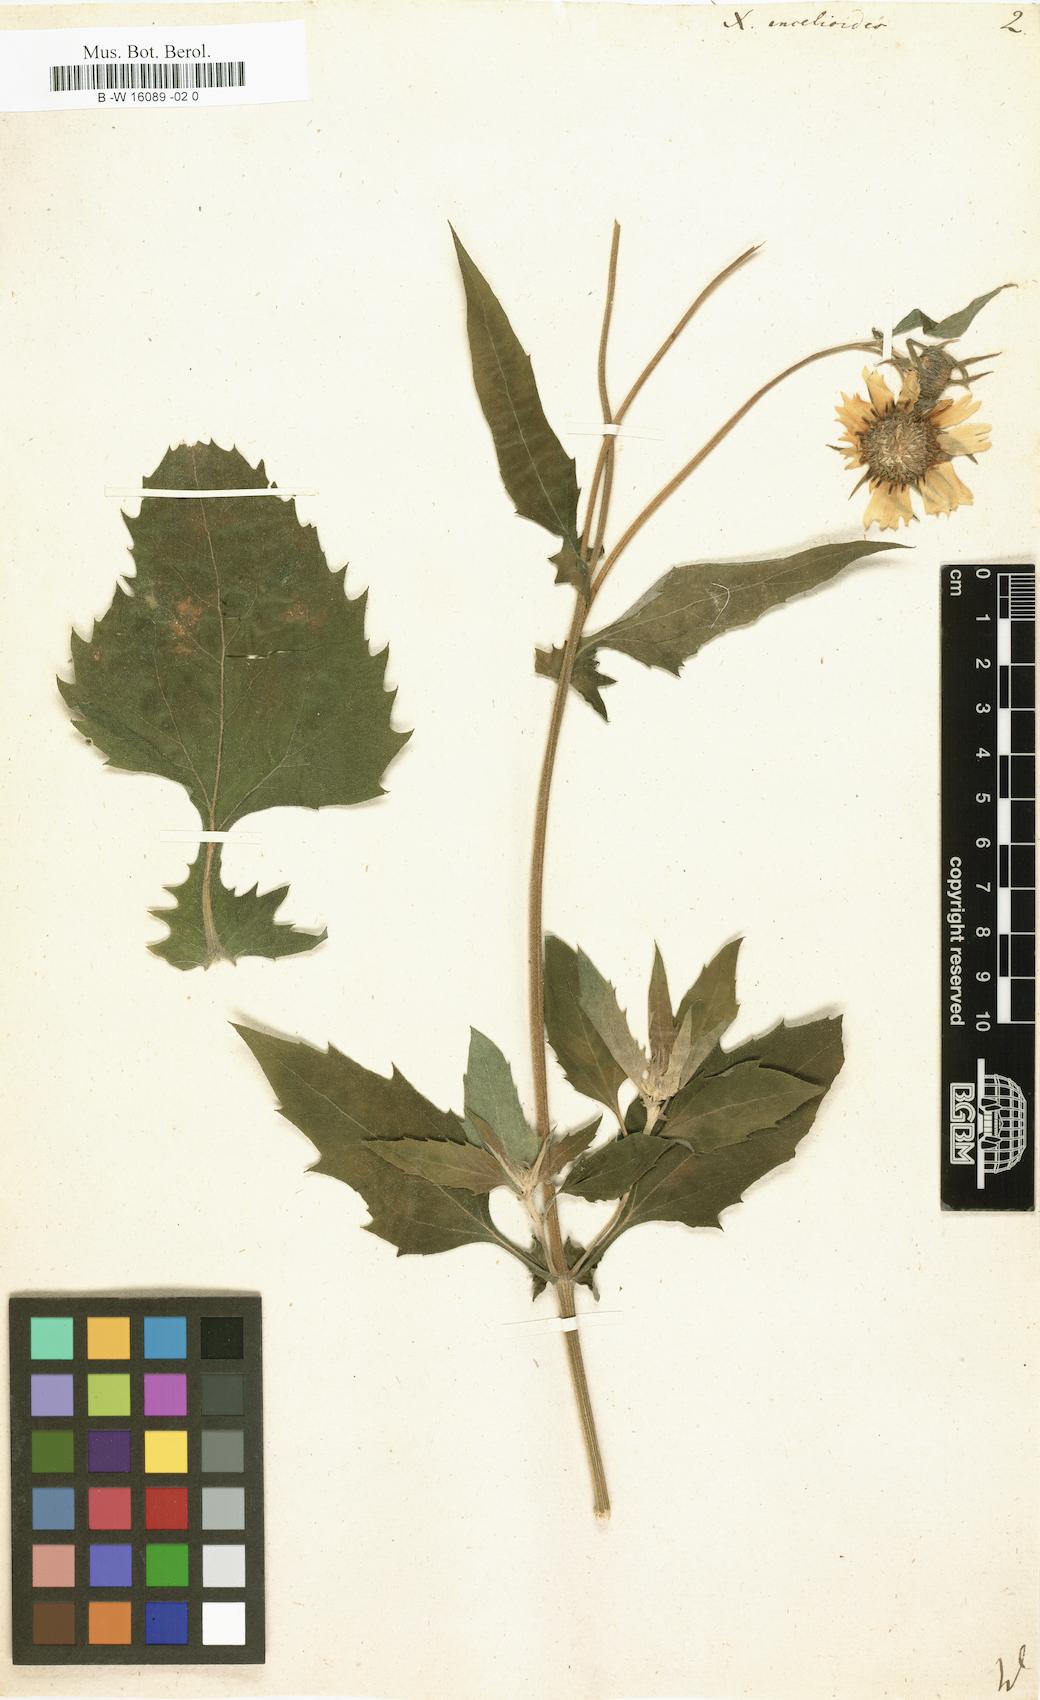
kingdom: Plantae
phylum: Tracheophyta
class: Magnoliopsida
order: Asterales
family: Asteraceae
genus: Verbesina
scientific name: Verbesina encelioides
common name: Golden crownbeard
